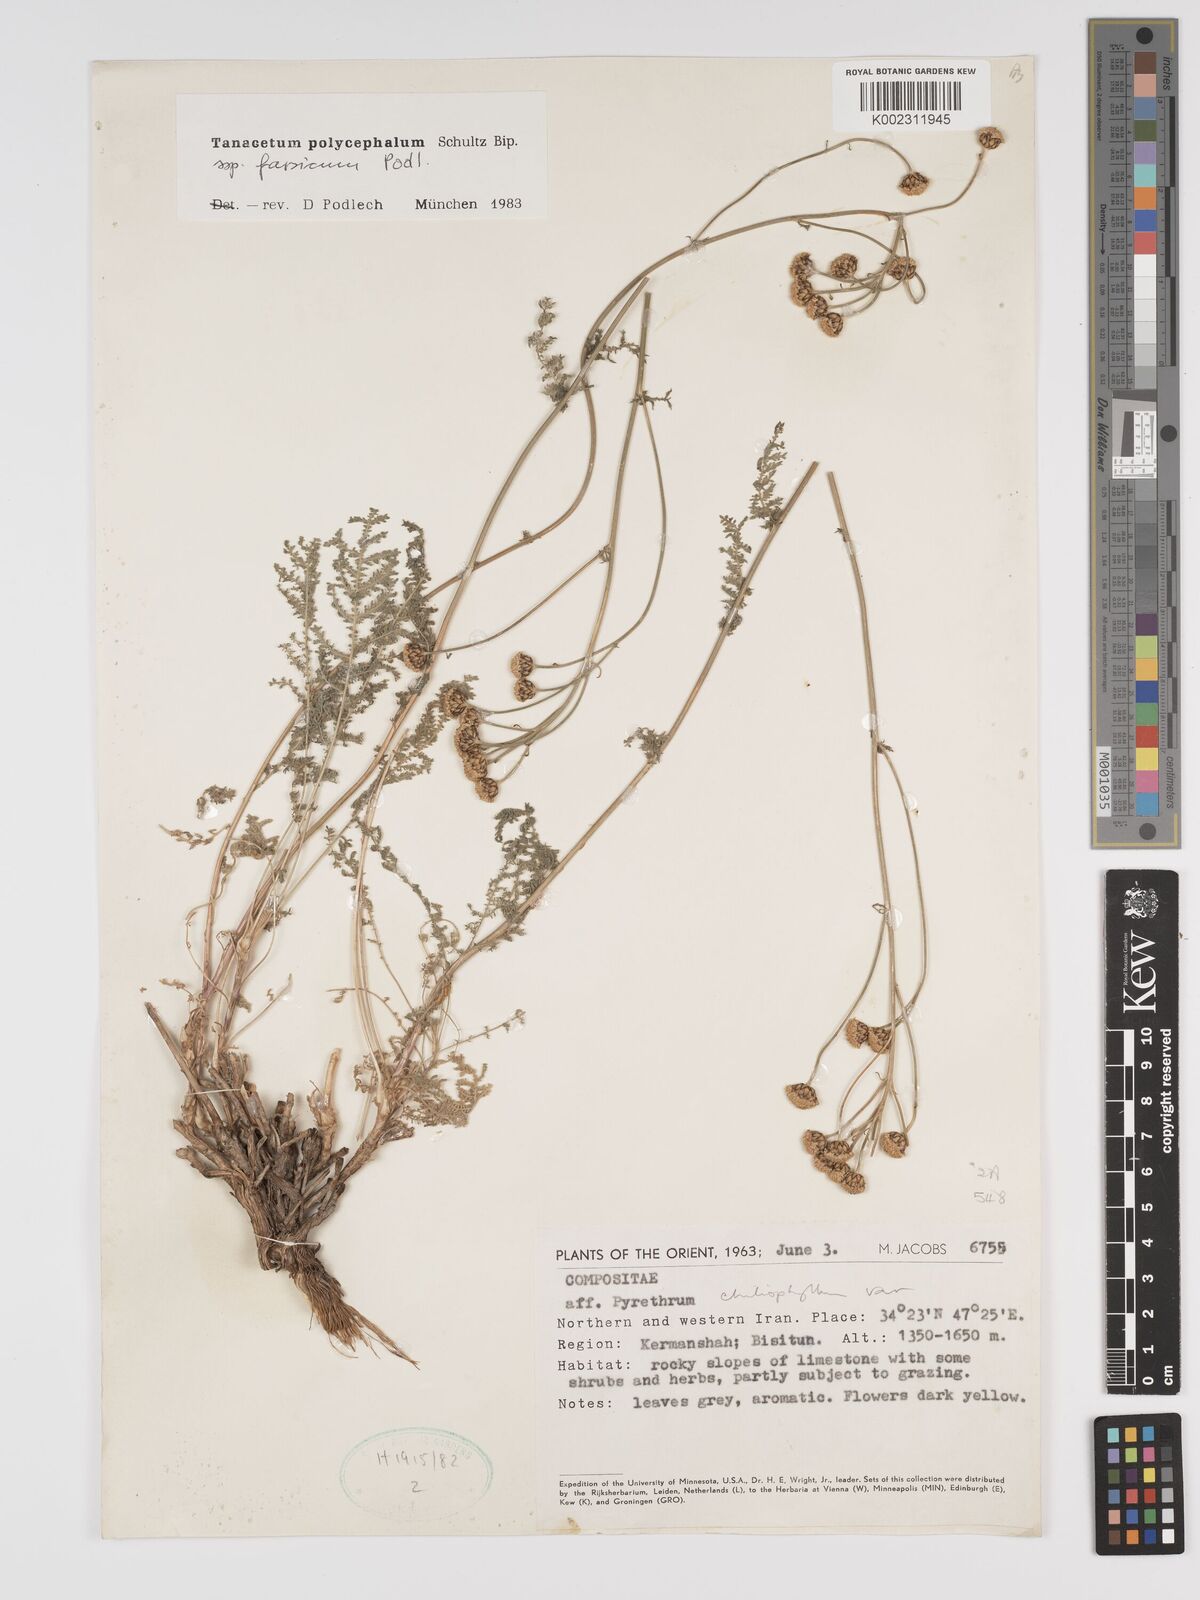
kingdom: Plantae
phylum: Tracheophyta
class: Magnoliopsida
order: Asterales
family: Asteraceae
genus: Tanacetum
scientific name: Tanacetum polycephalum
